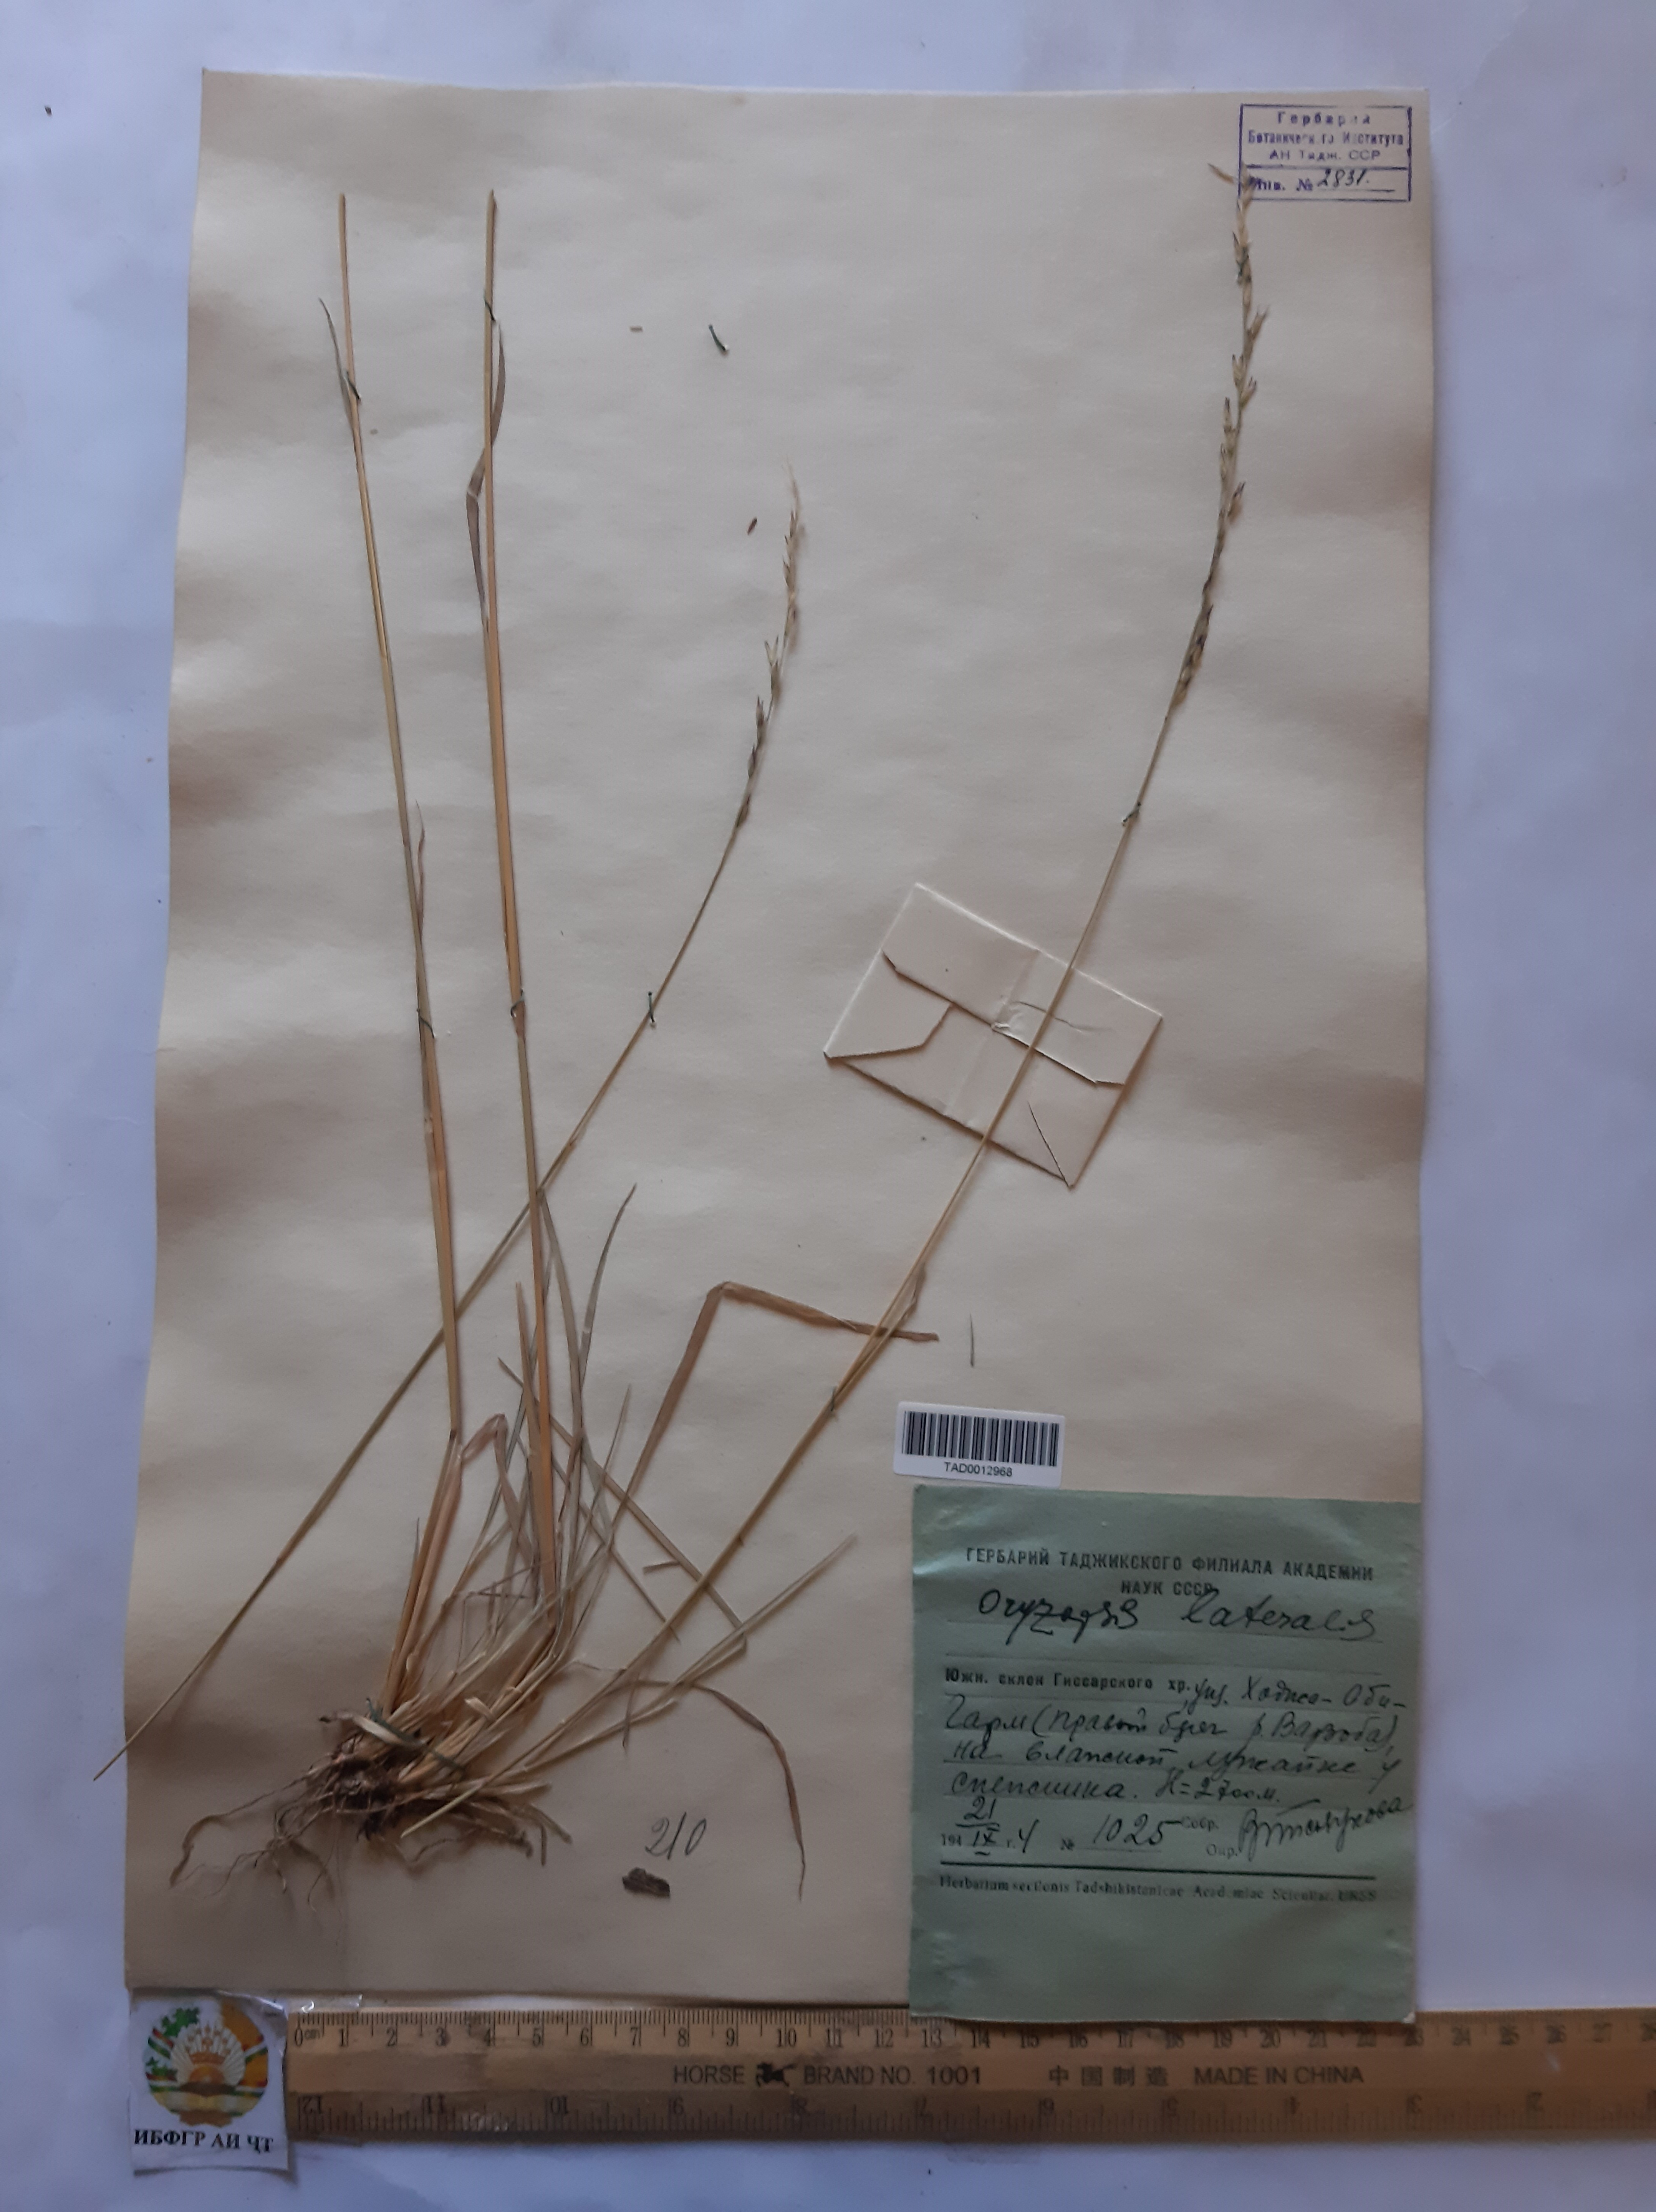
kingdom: Plantae
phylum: Tracheophyta
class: Liliopsida
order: Poales
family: Poaceae
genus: Piptatherum
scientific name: Piptatherum laterale
